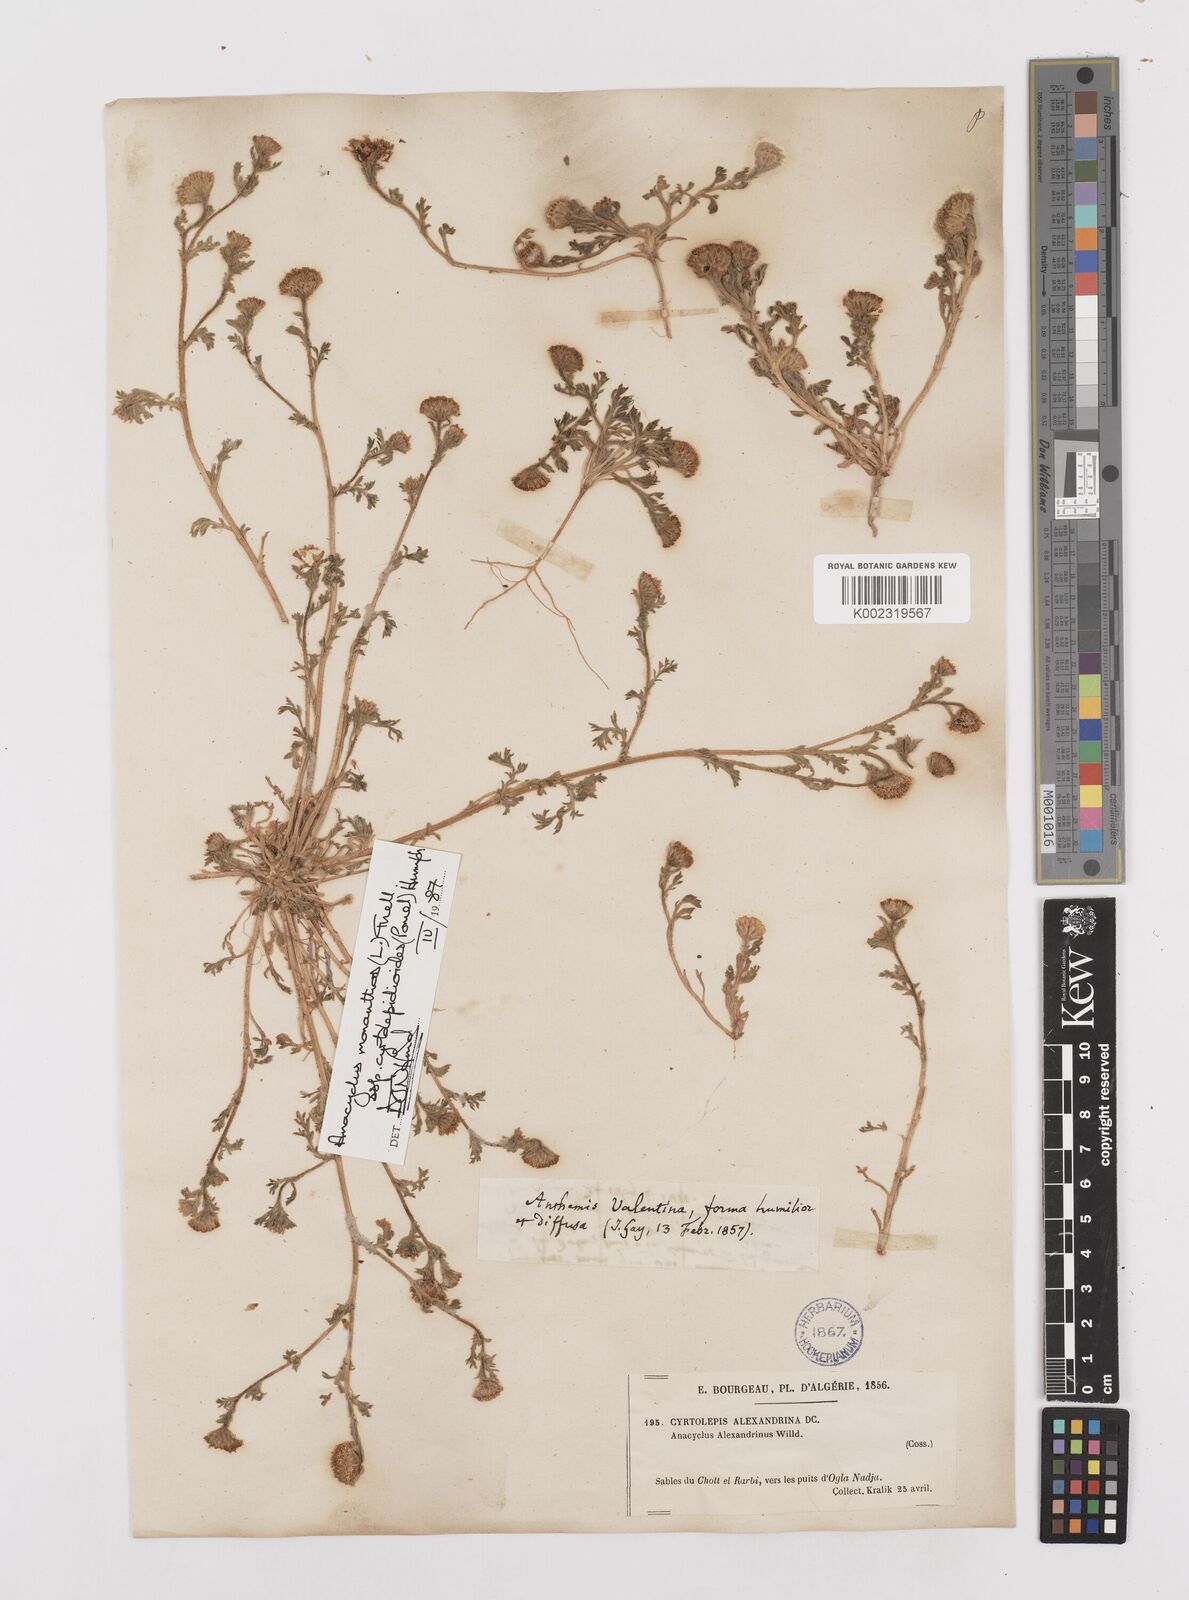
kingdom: Plantae
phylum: Tracheophyta
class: Magnoliopsida
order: Asterales
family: Asteraceae
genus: Anacyclus
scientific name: Anacyclus monanthos
